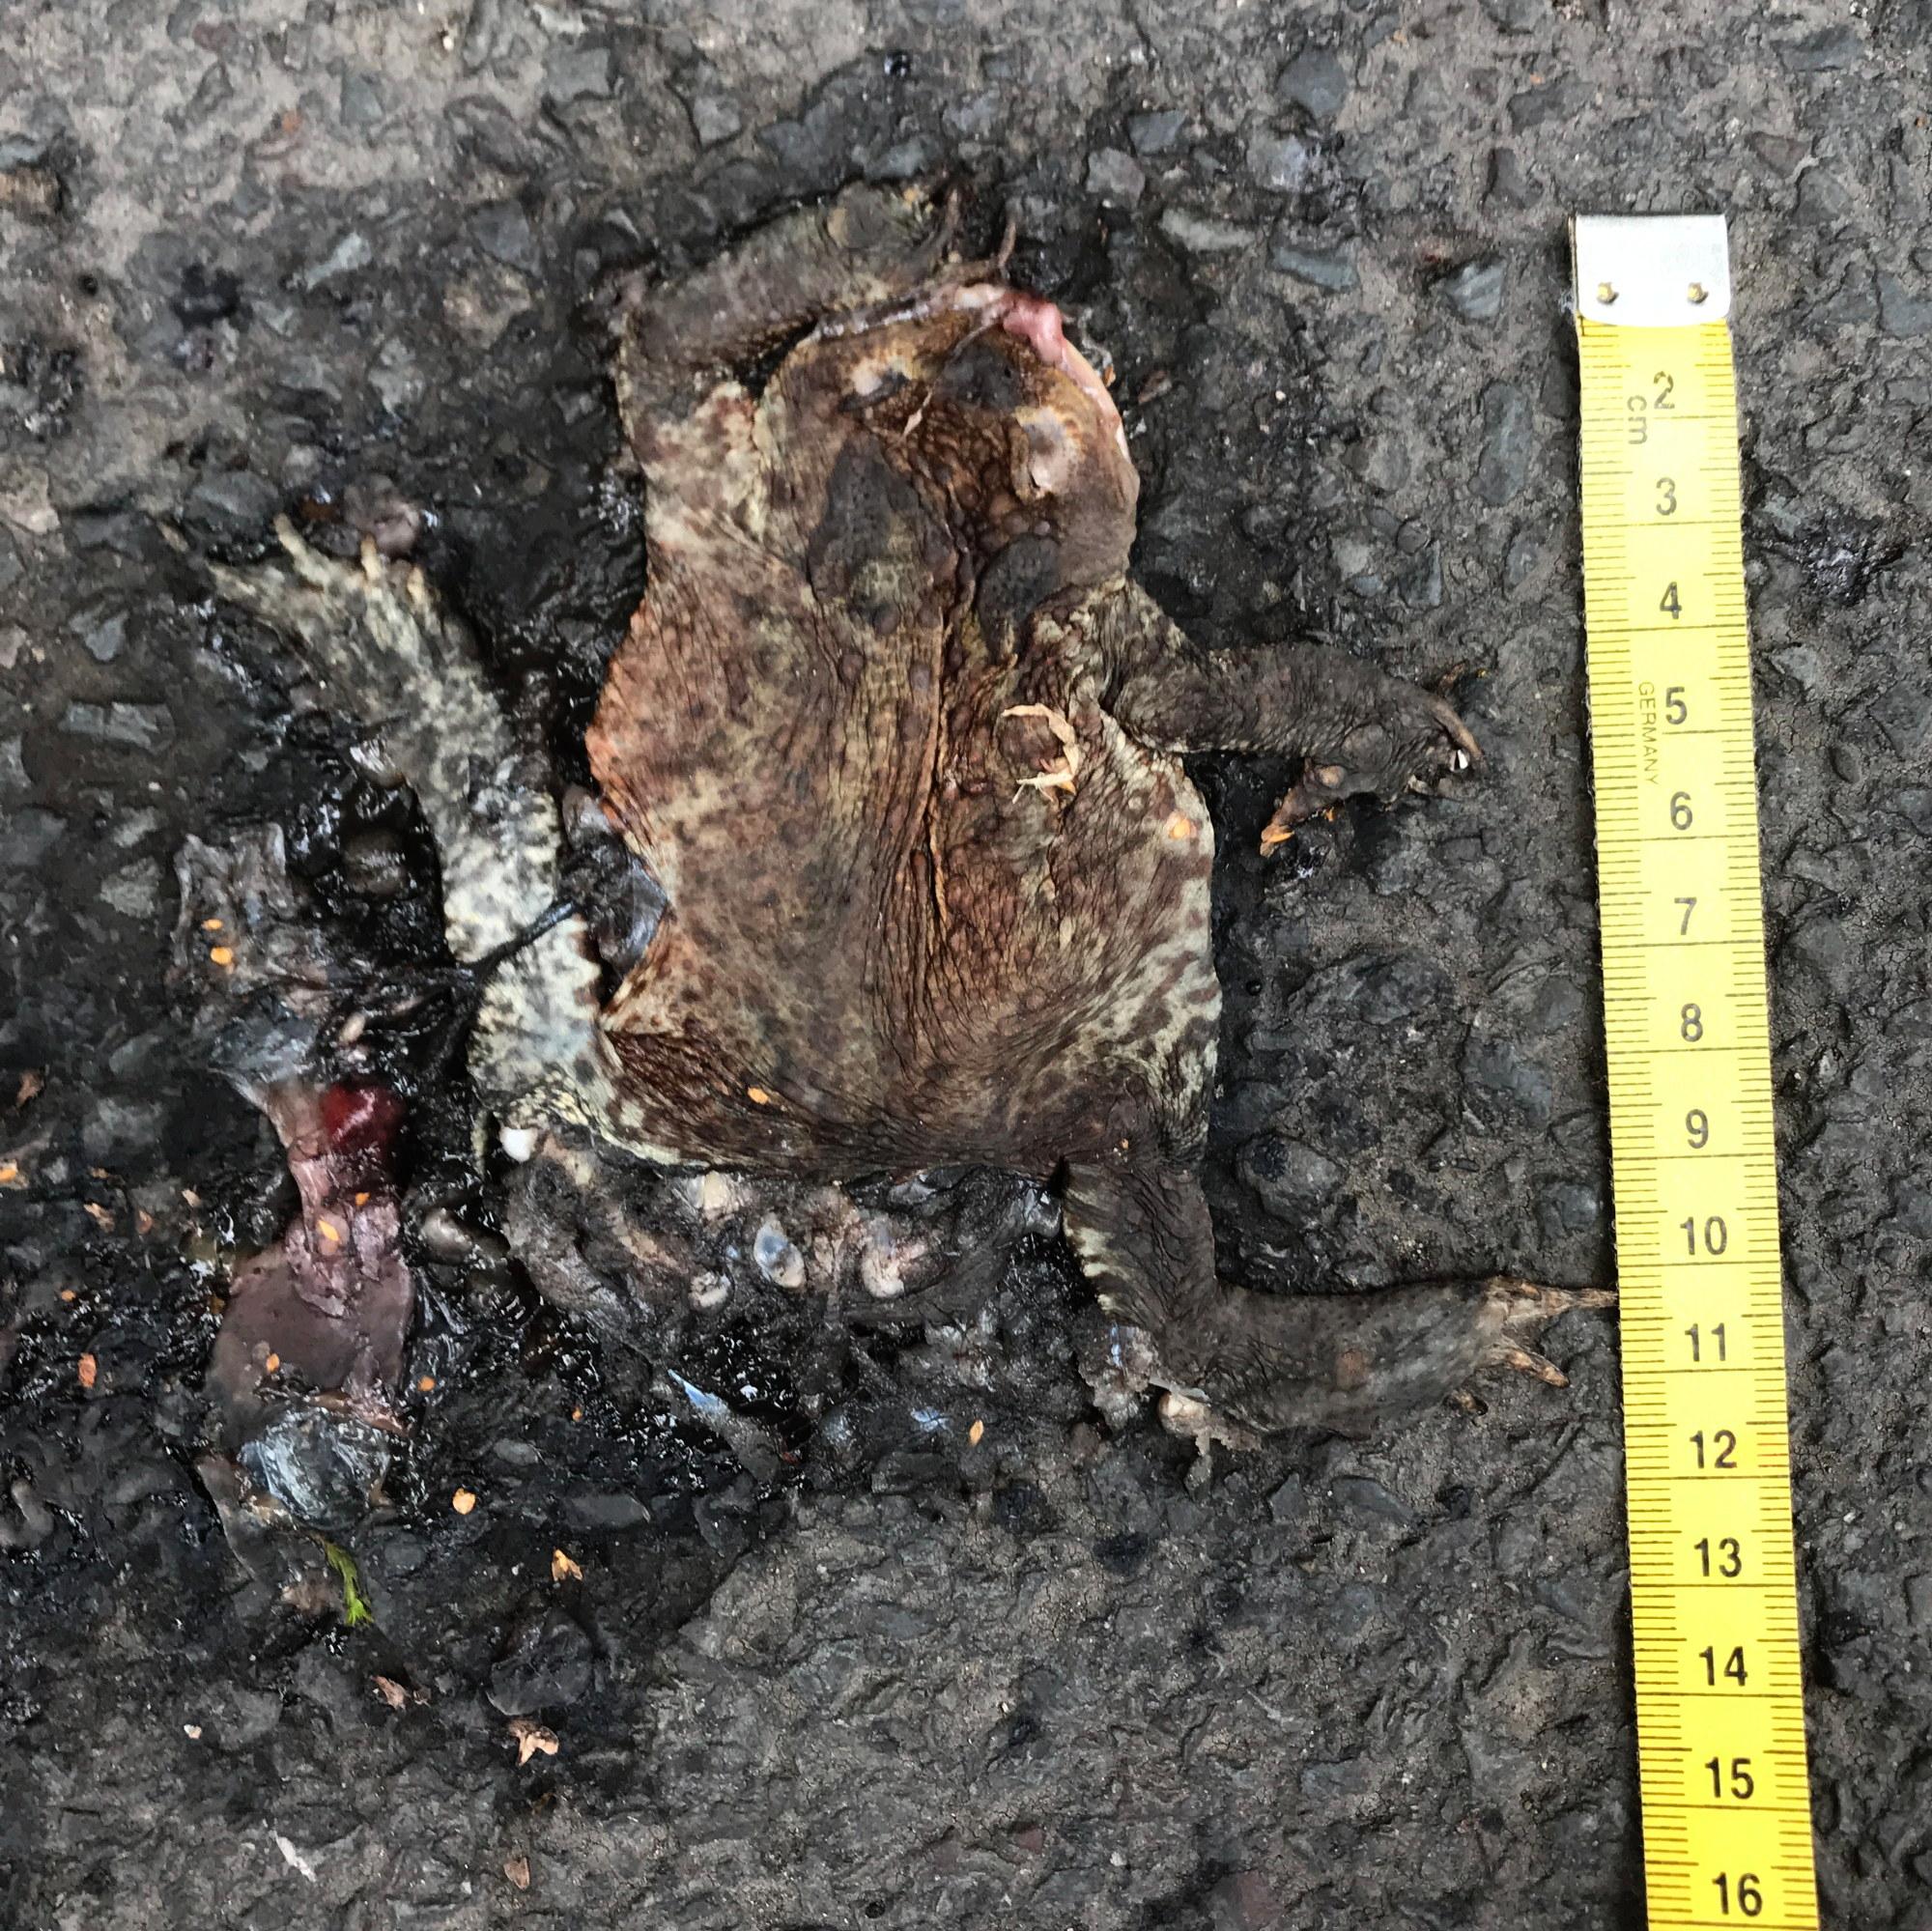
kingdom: Animalia
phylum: Chordata
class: Amphibia
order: Anura
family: Bufonidae
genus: Bufo
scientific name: Bufo bufo
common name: Common toad
